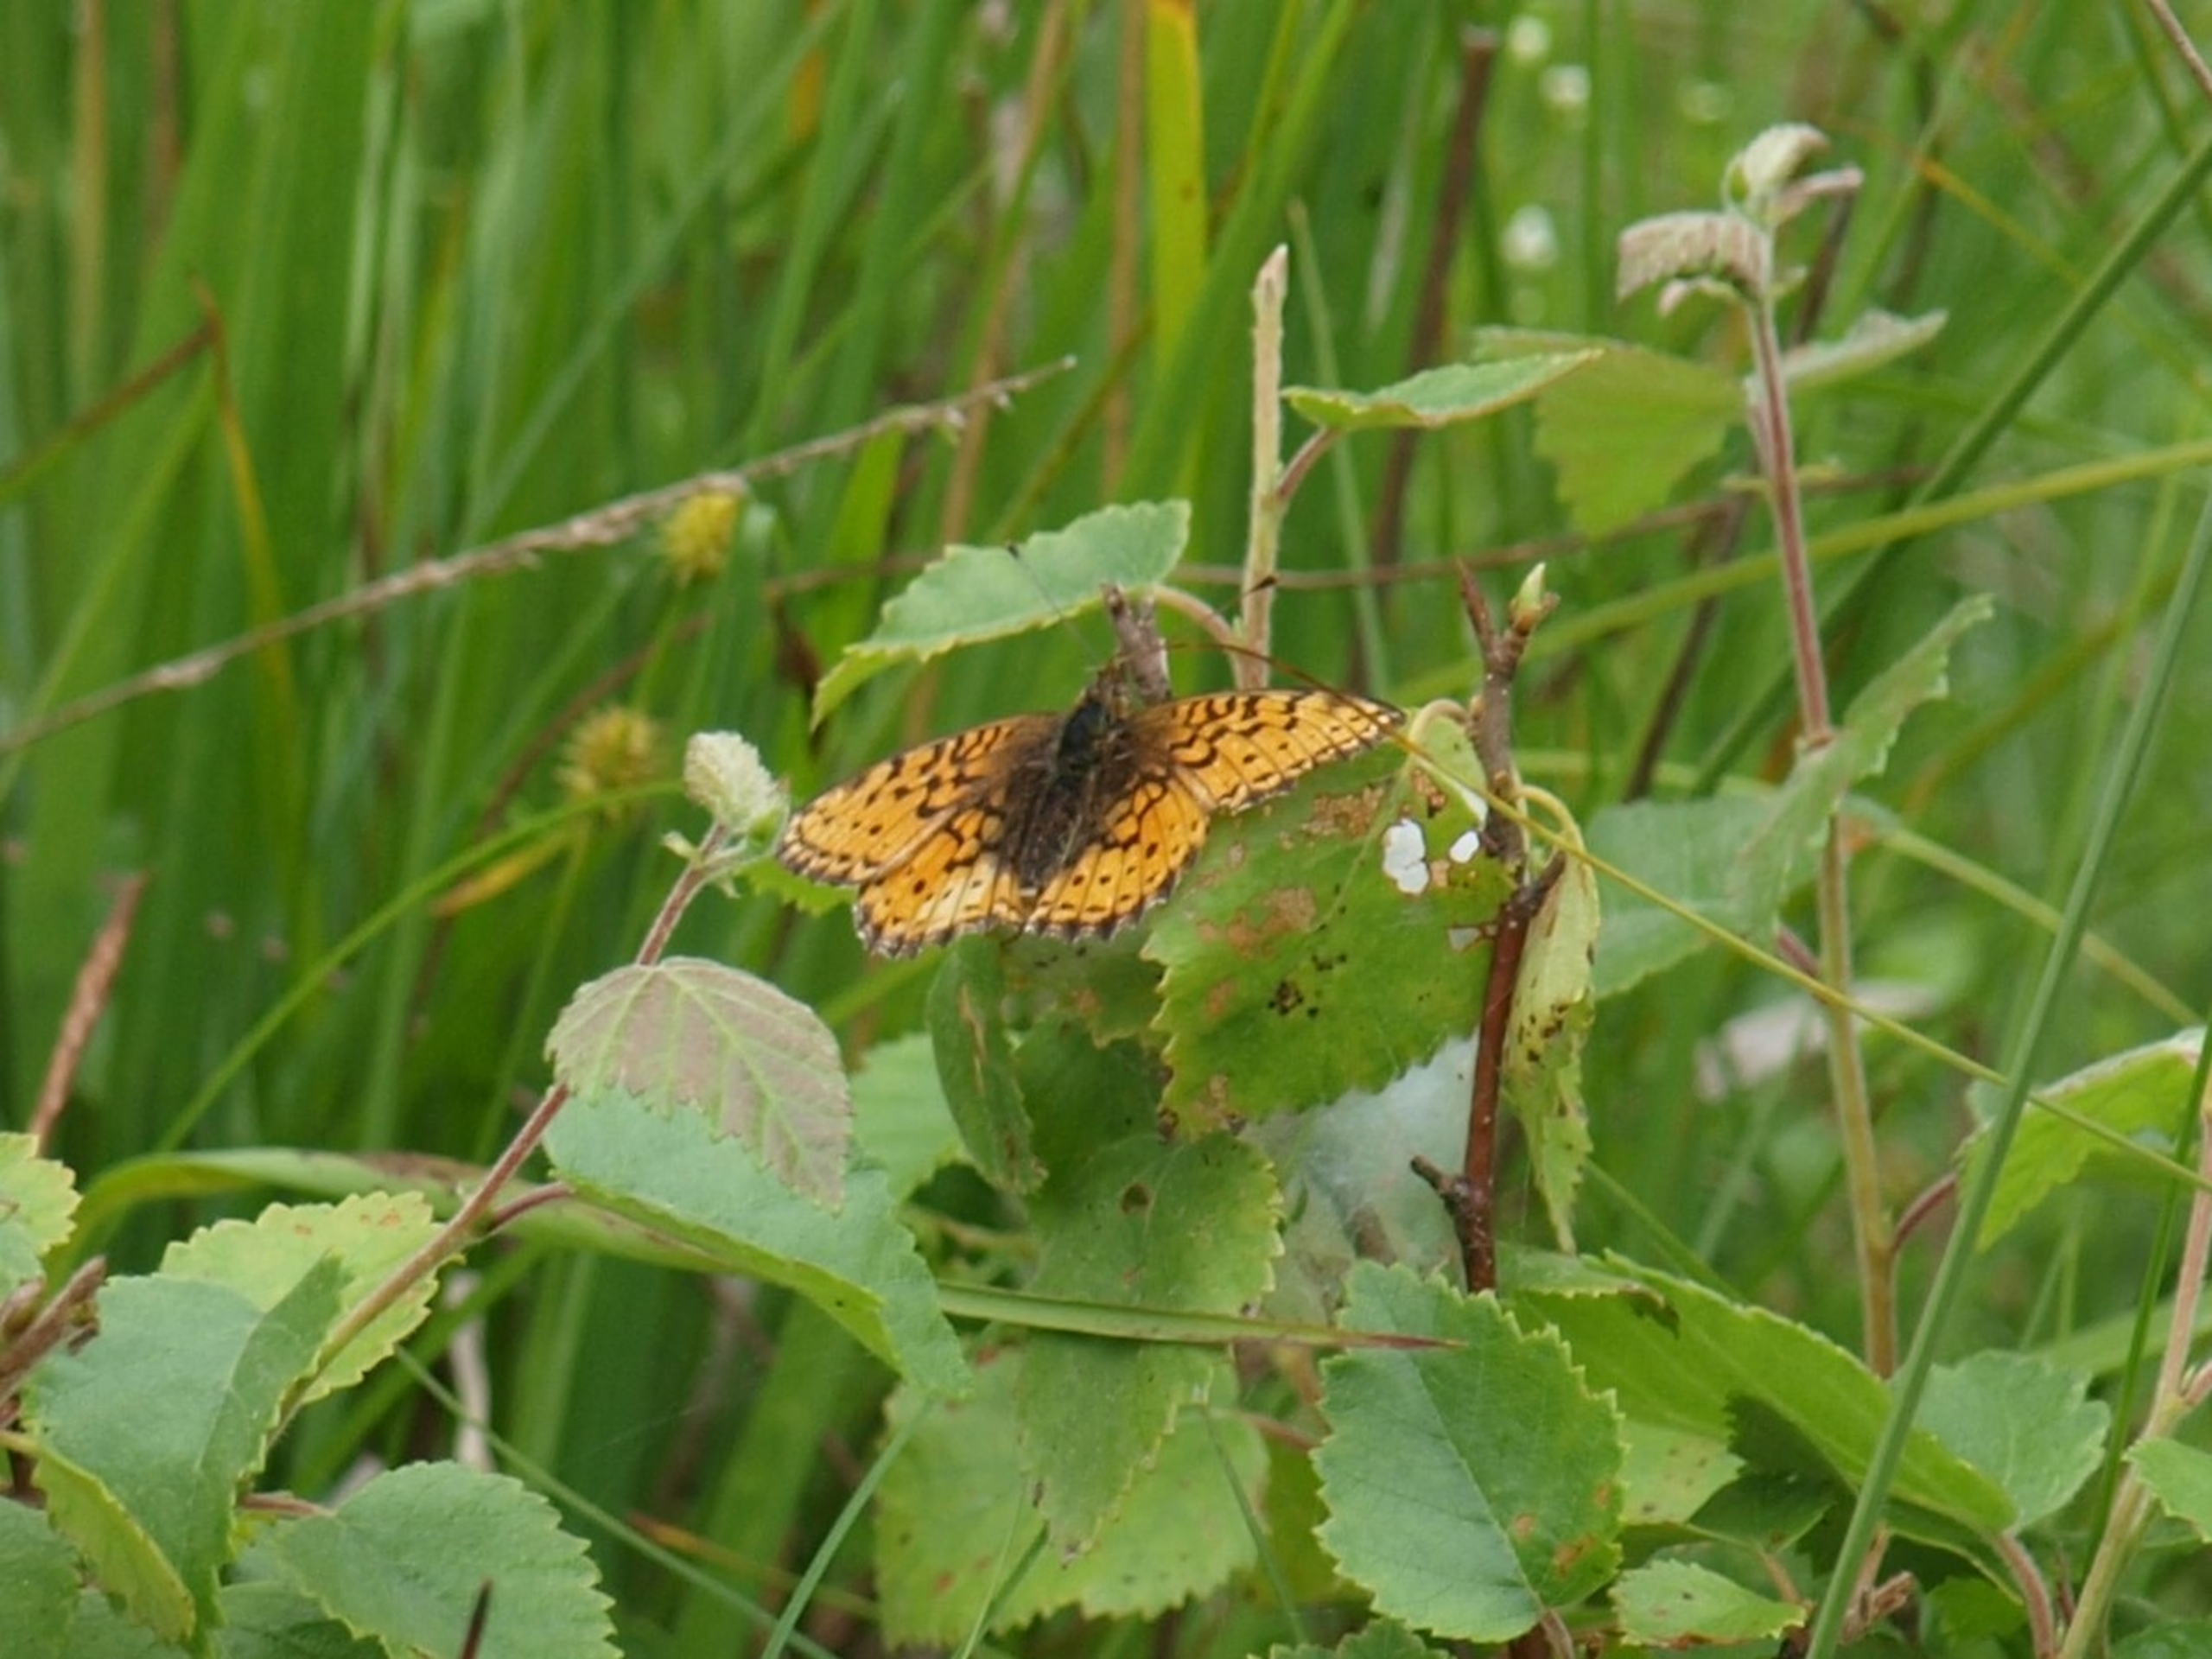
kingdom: Animalia
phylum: Arthropoda
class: Insecta
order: Lepidoptera
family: Nymphalidae
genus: Brenthis
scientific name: Brenthis ino
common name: Engperlemorsommerfugl
